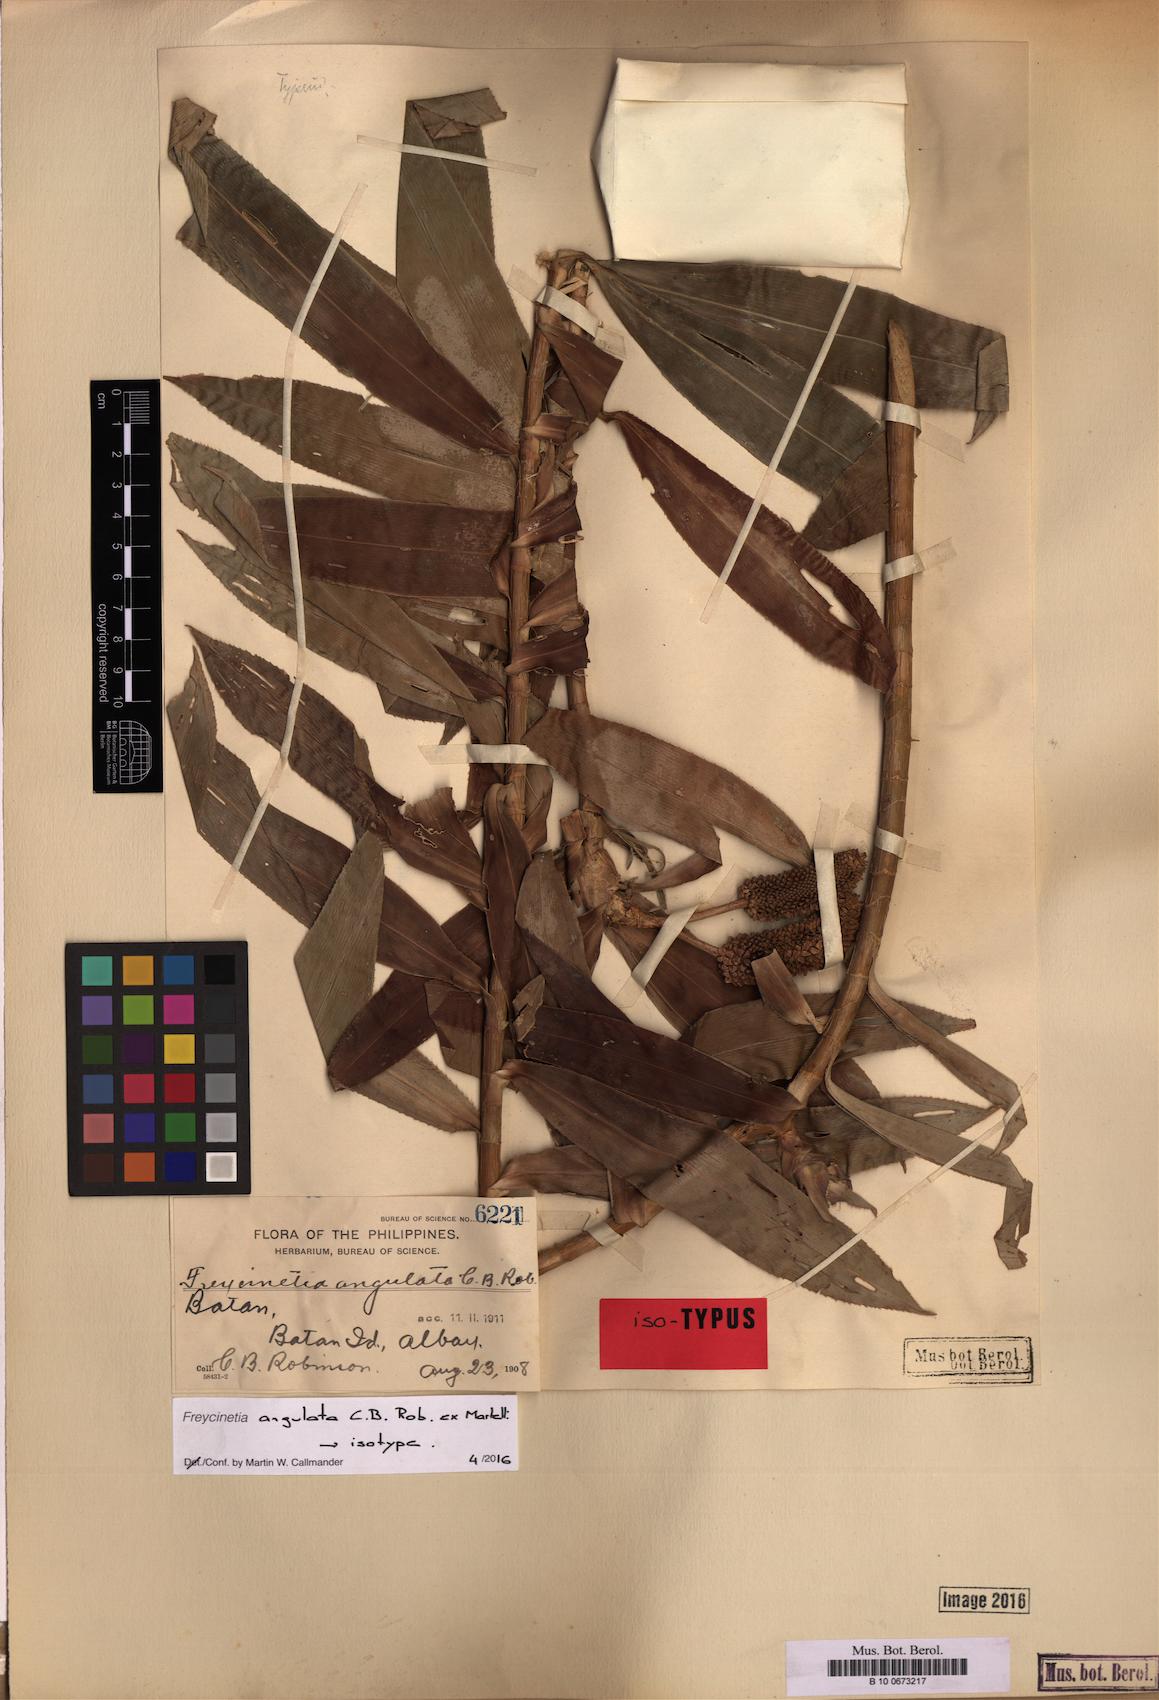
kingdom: Plantae
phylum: Tracheophyta
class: Liliopsida
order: Pandanales
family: Pandanaceae
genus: Freycinetia
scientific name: Freycinetia angulata
